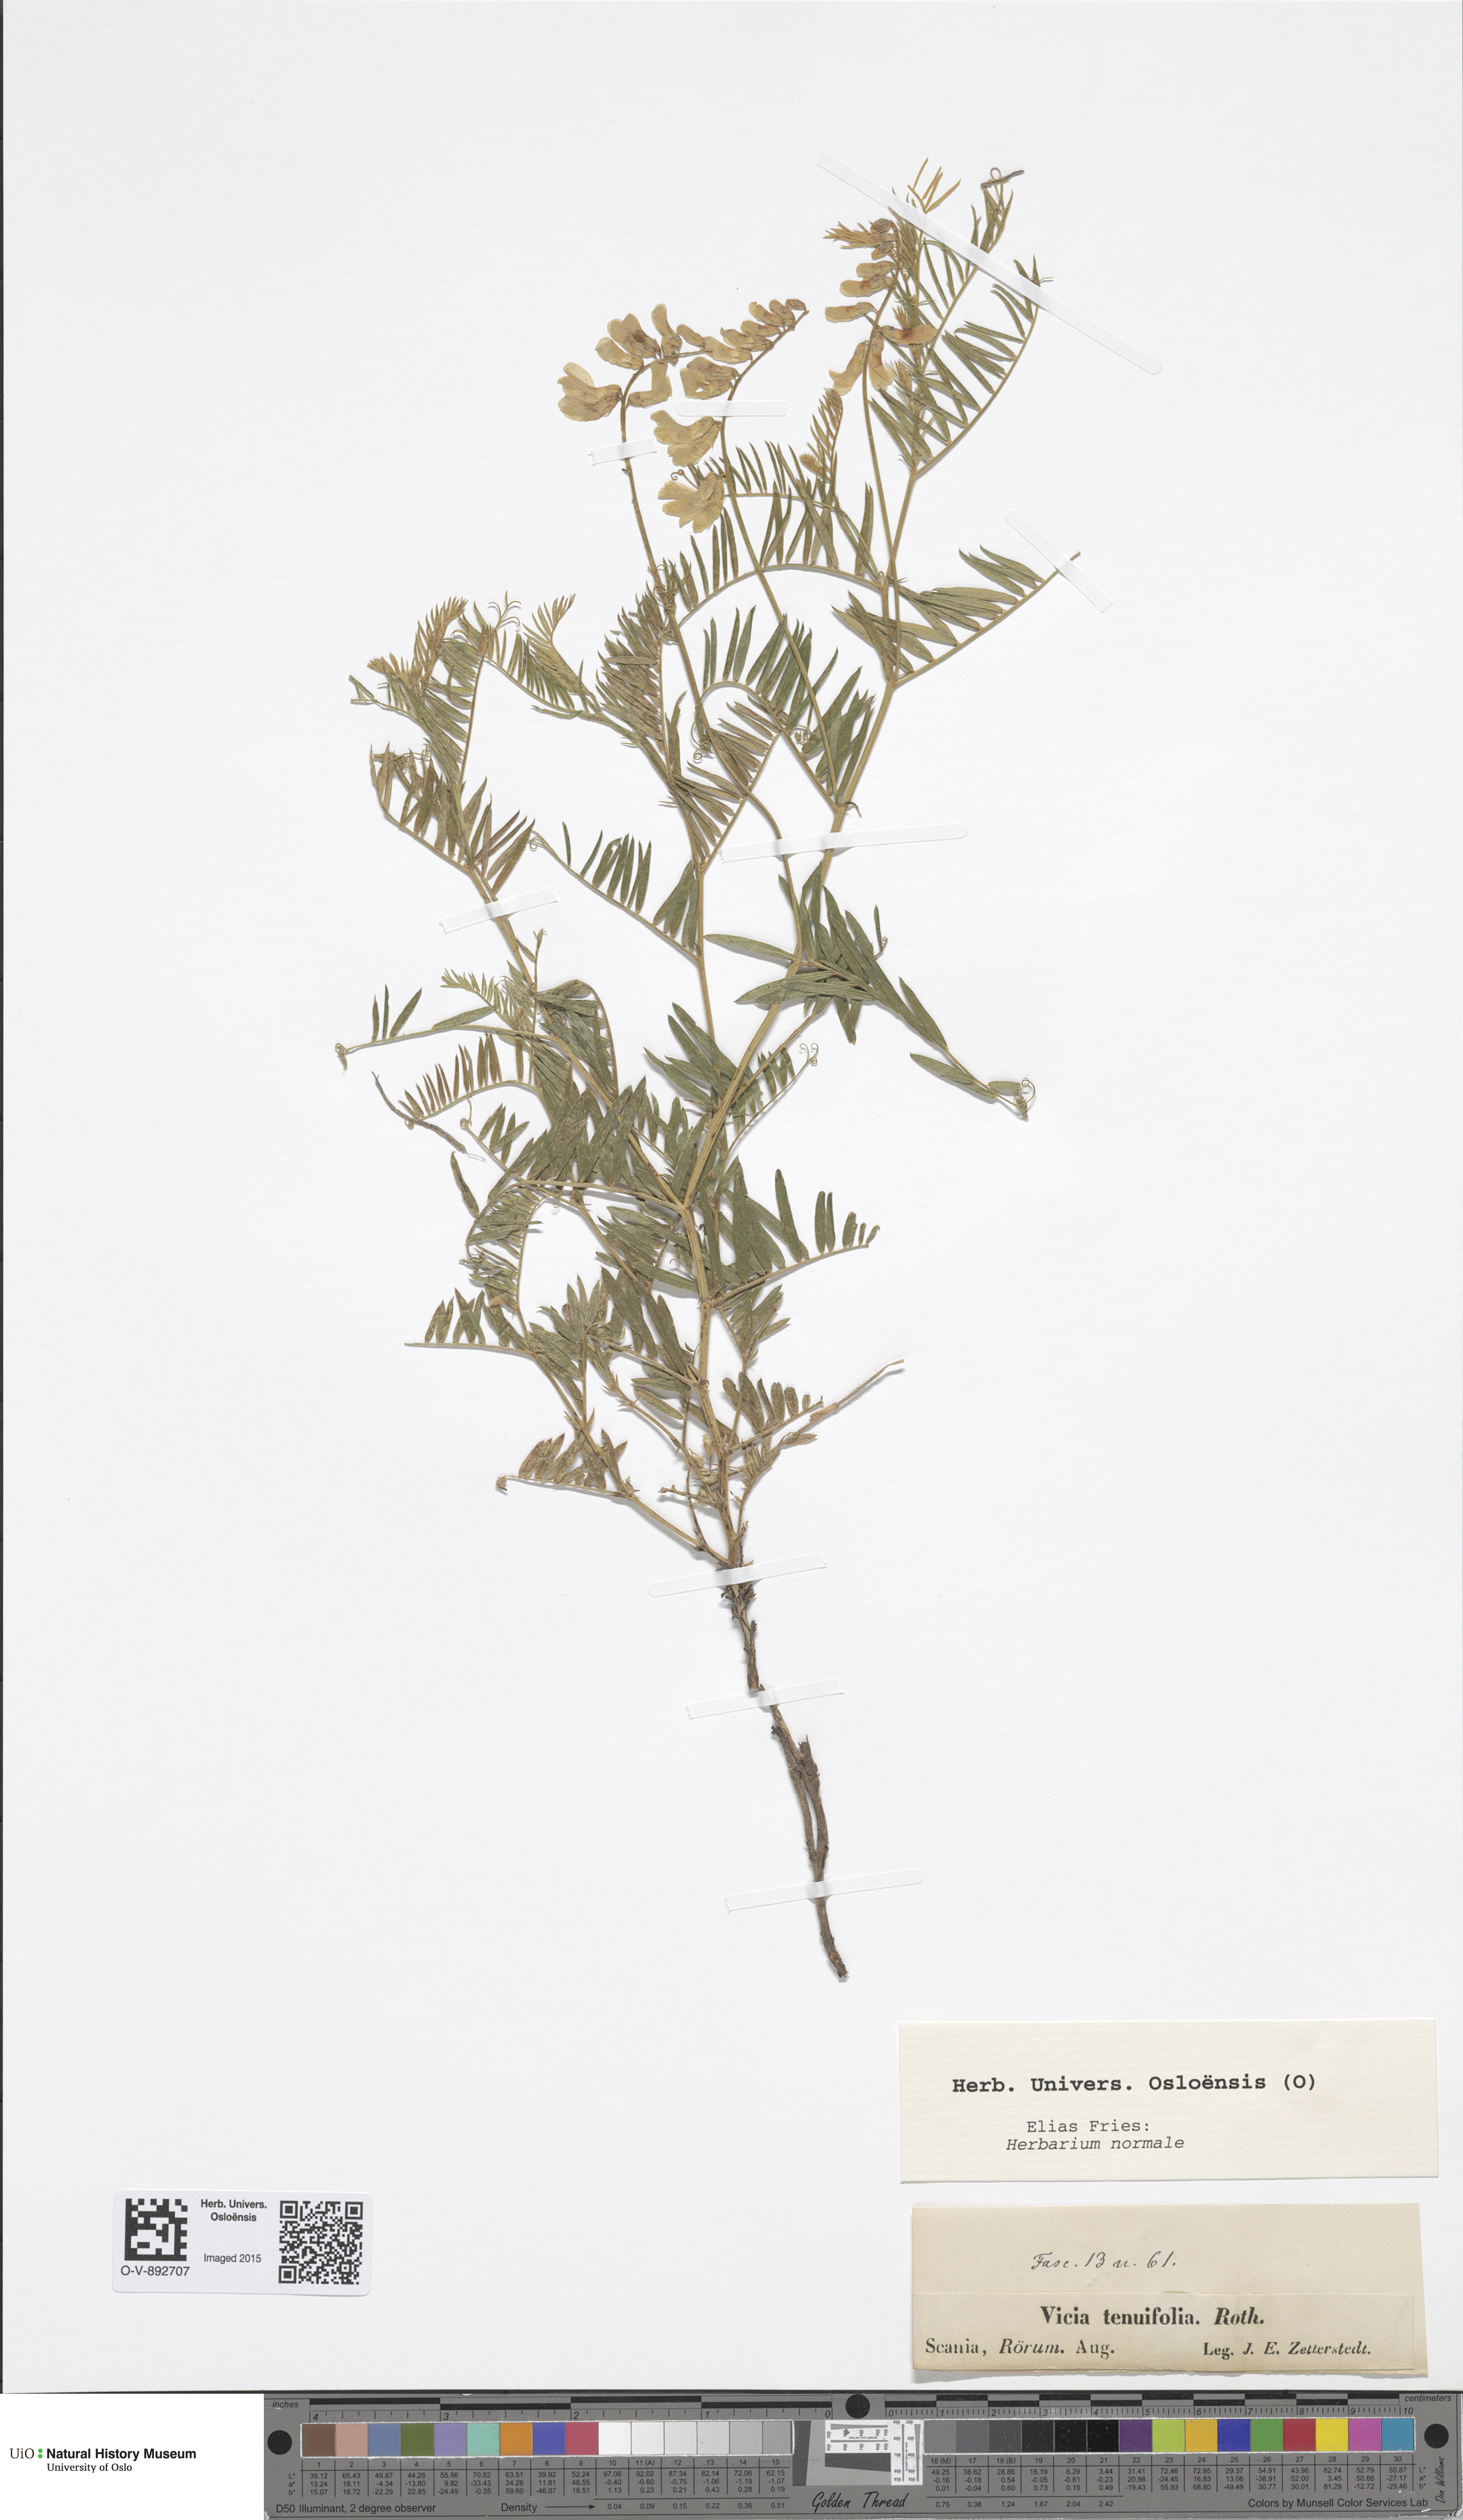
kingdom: Plantae
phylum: Tracheophyta
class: Magnoliopsida
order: Fabales
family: Fabaceae
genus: Vicia
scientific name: Vicia tenuifolia
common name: Fine-leaved vetch
